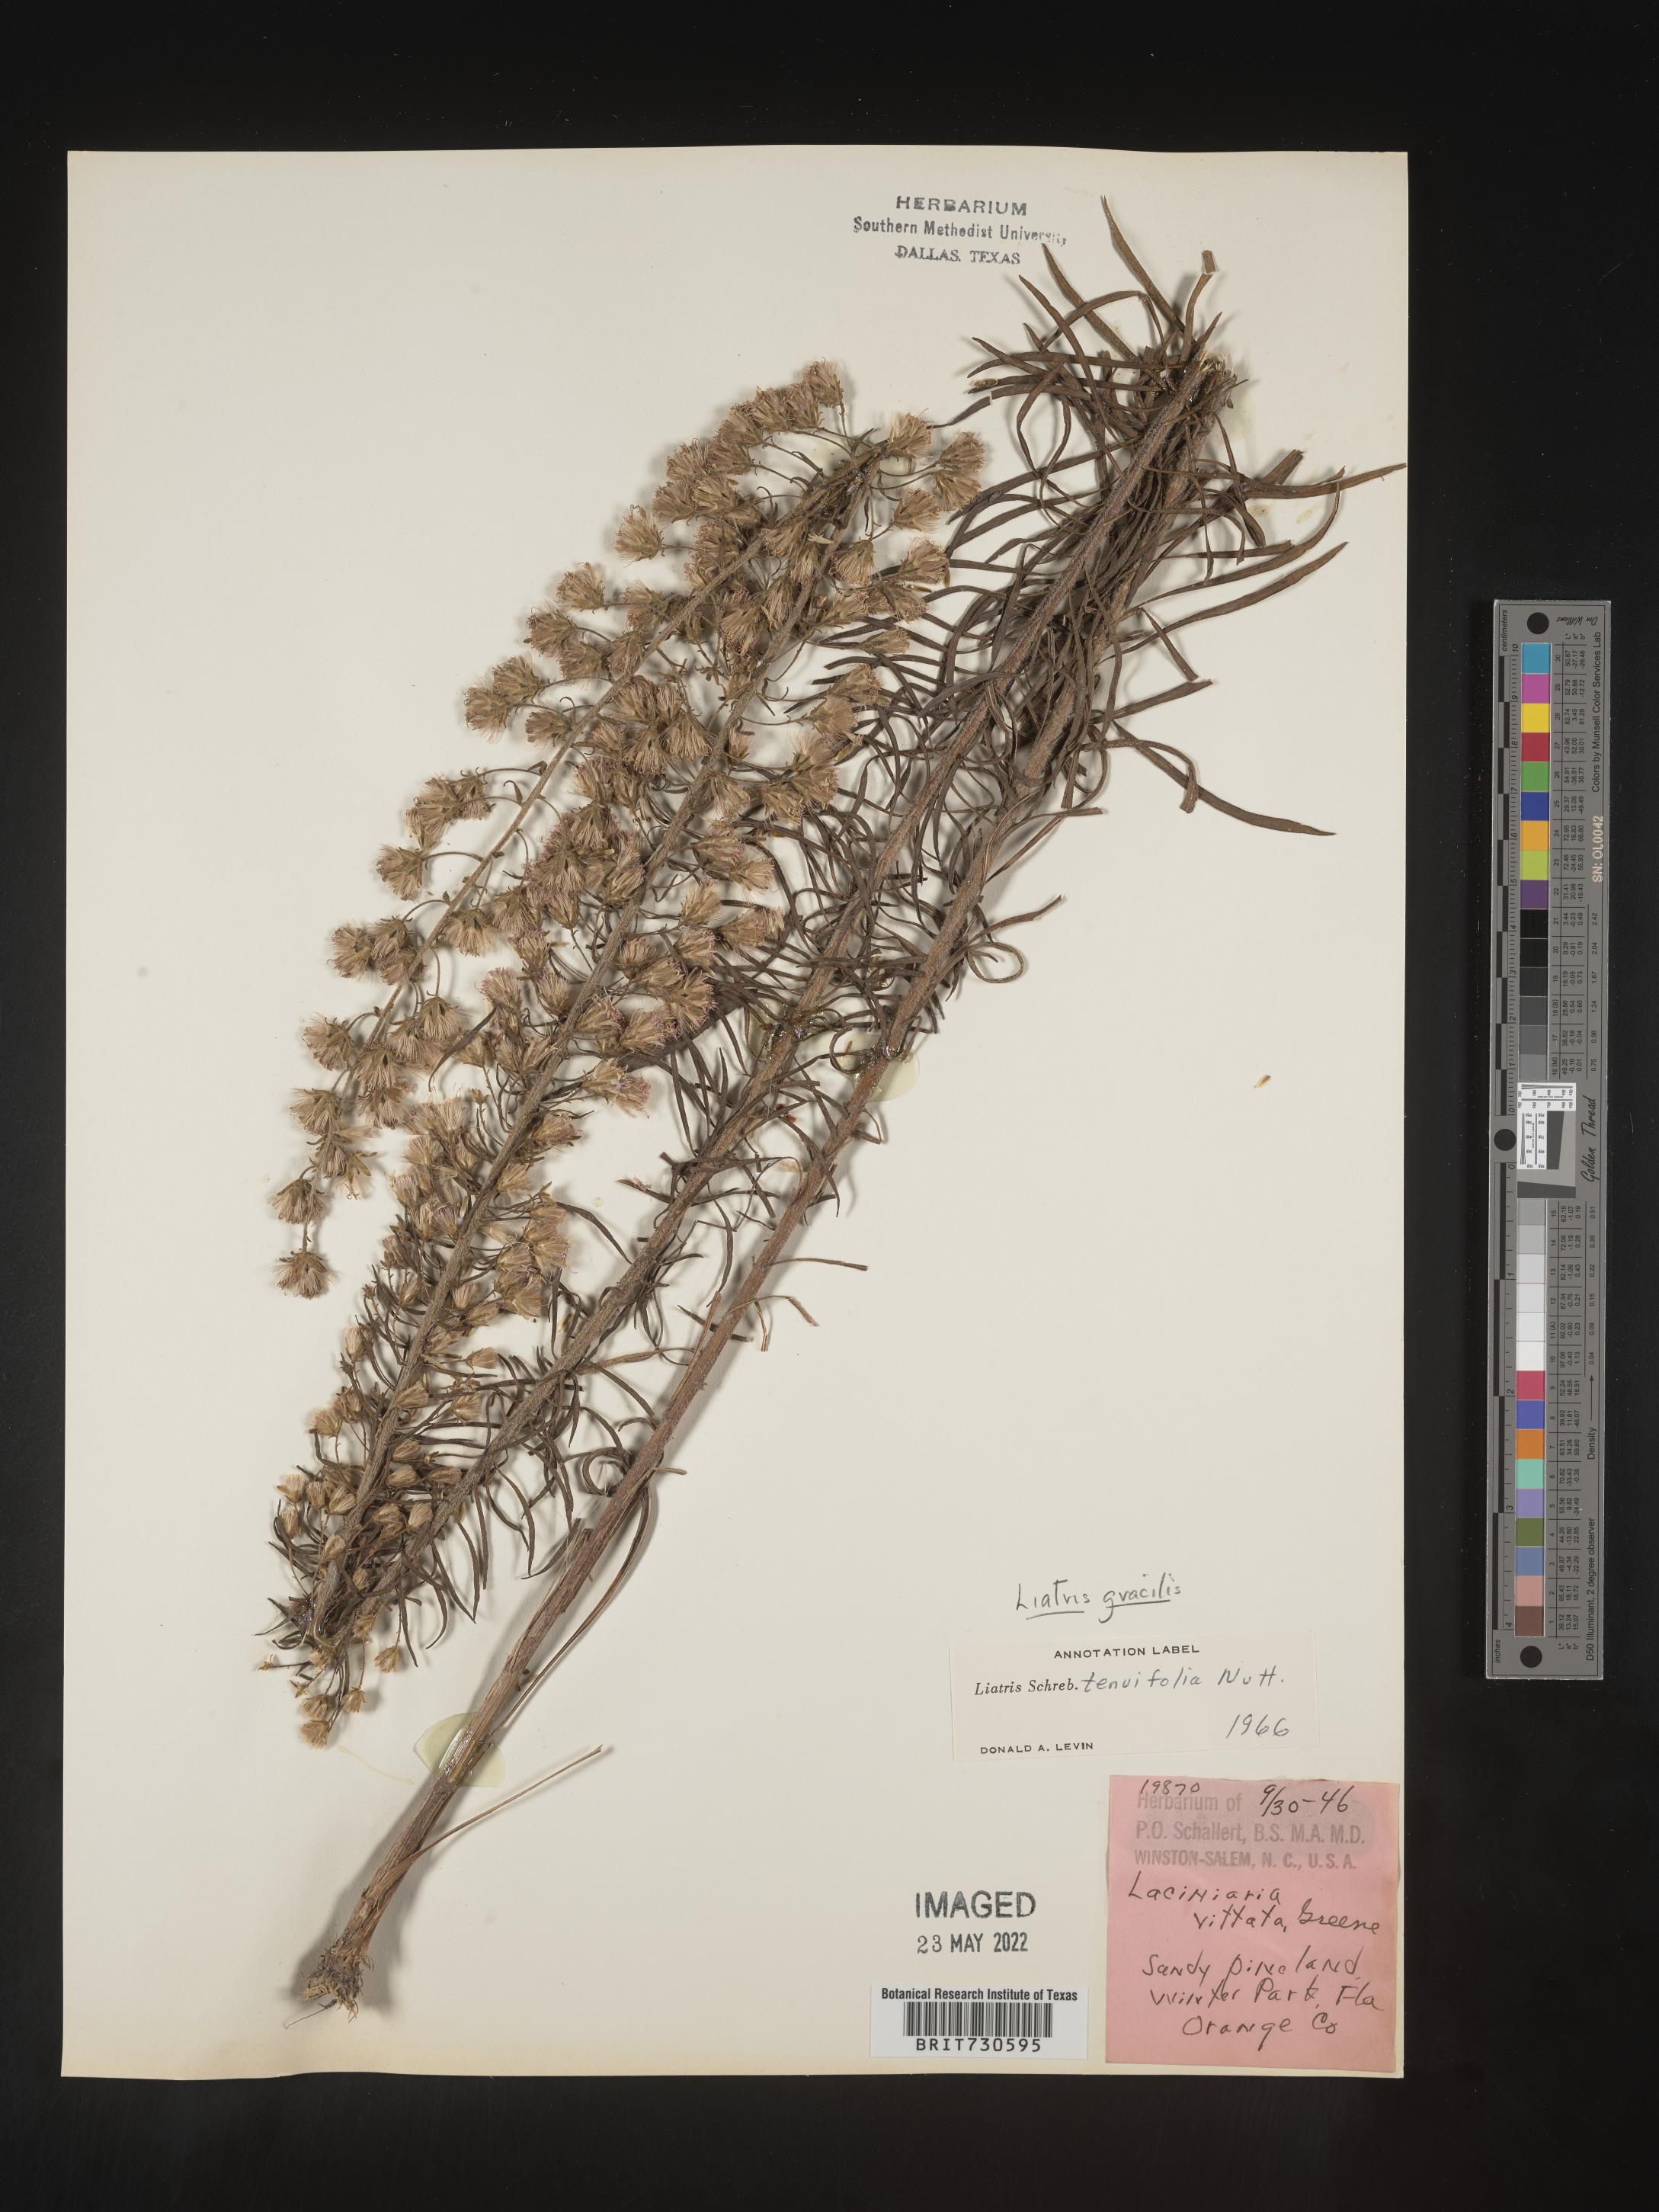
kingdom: Plantae
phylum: Tracheophyta
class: Magnoliopsida
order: Asterales
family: Asteraceae
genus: Liatris
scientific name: Liatris gracilis
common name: Slender gayfeather
